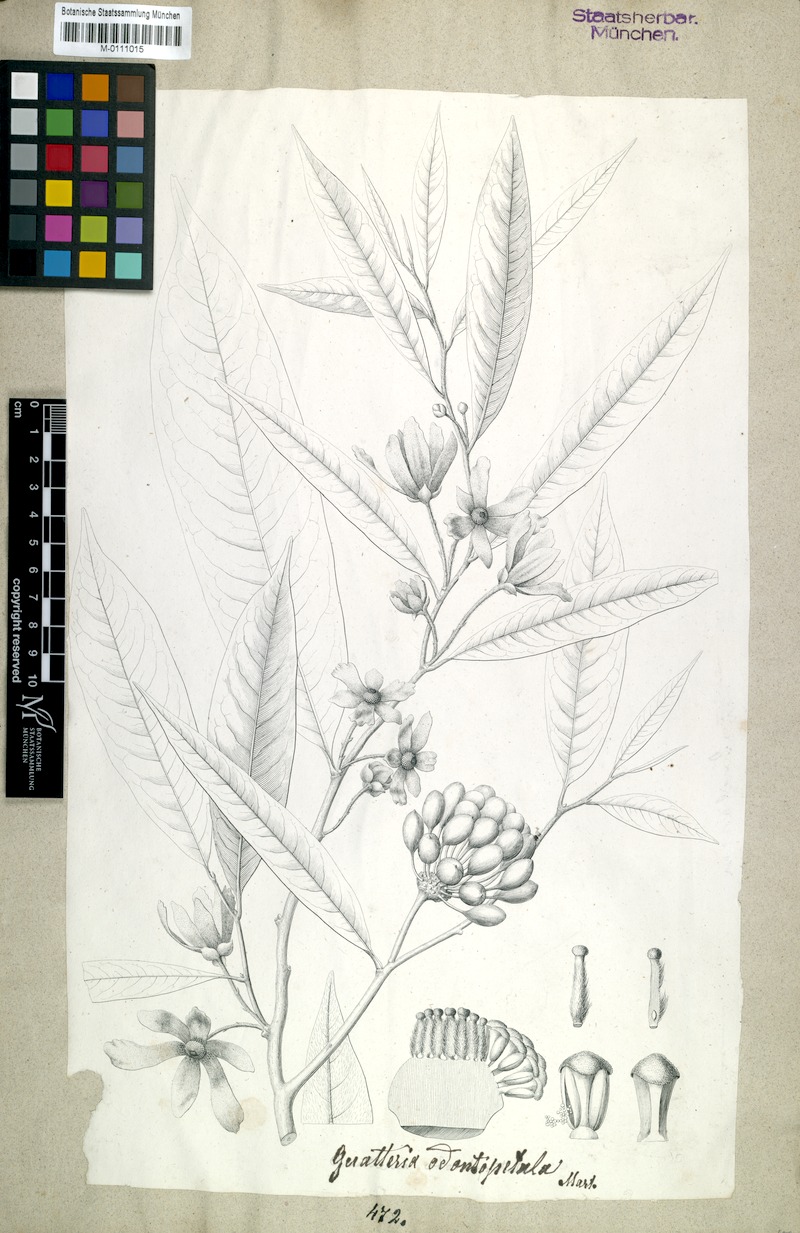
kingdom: Plantae
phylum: Tracheophyta
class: Magnoliopsida
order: Magnoliales
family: Annonaceae
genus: Guatteria
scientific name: Guatteria australis
